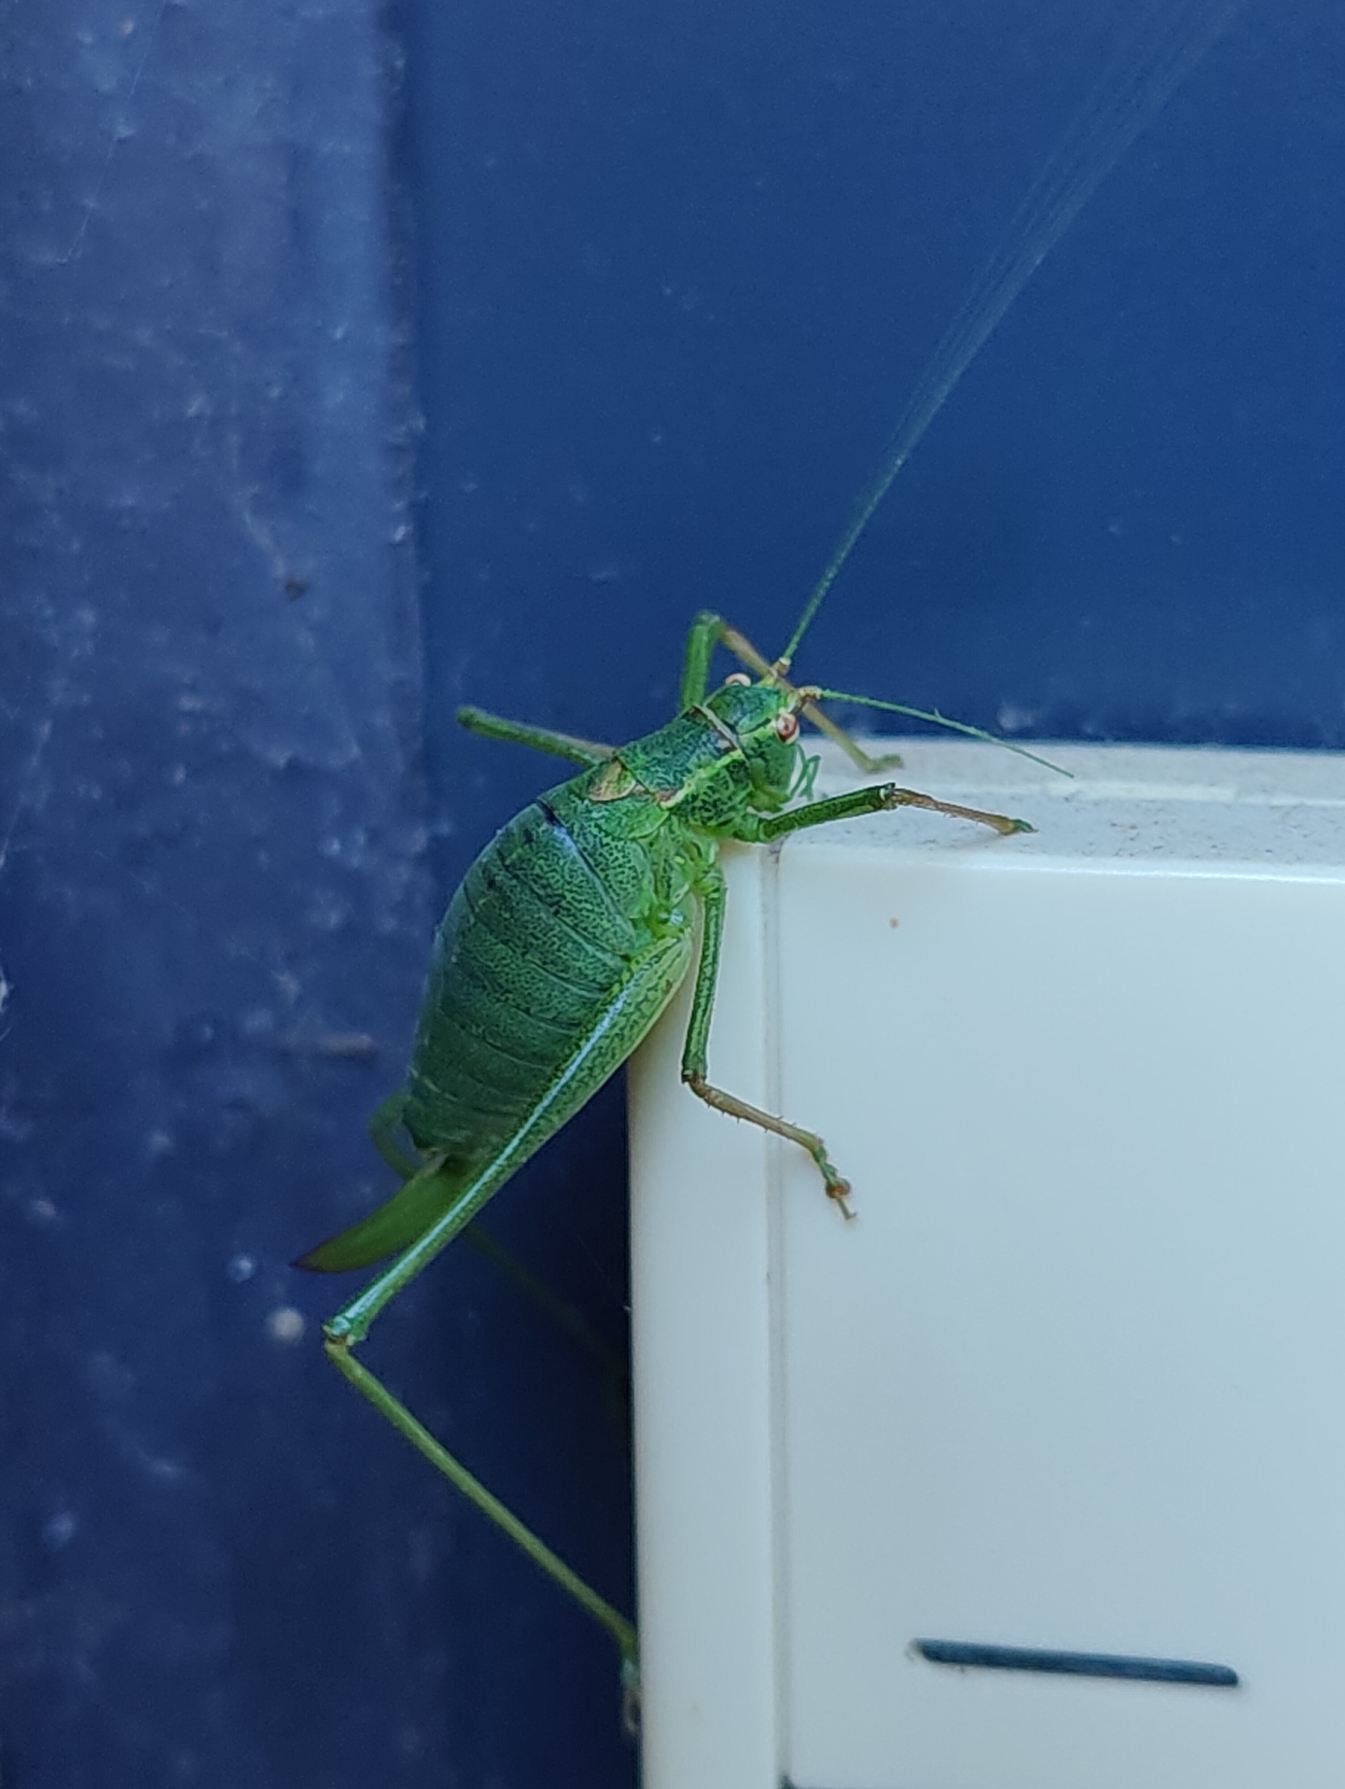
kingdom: Animalia
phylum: Arthropoda
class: Insecta
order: Orthoptera
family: Tettigoniidae
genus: Leptophyes
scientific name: Leptophyes punctatissima
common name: Krumknivgræshoppe
